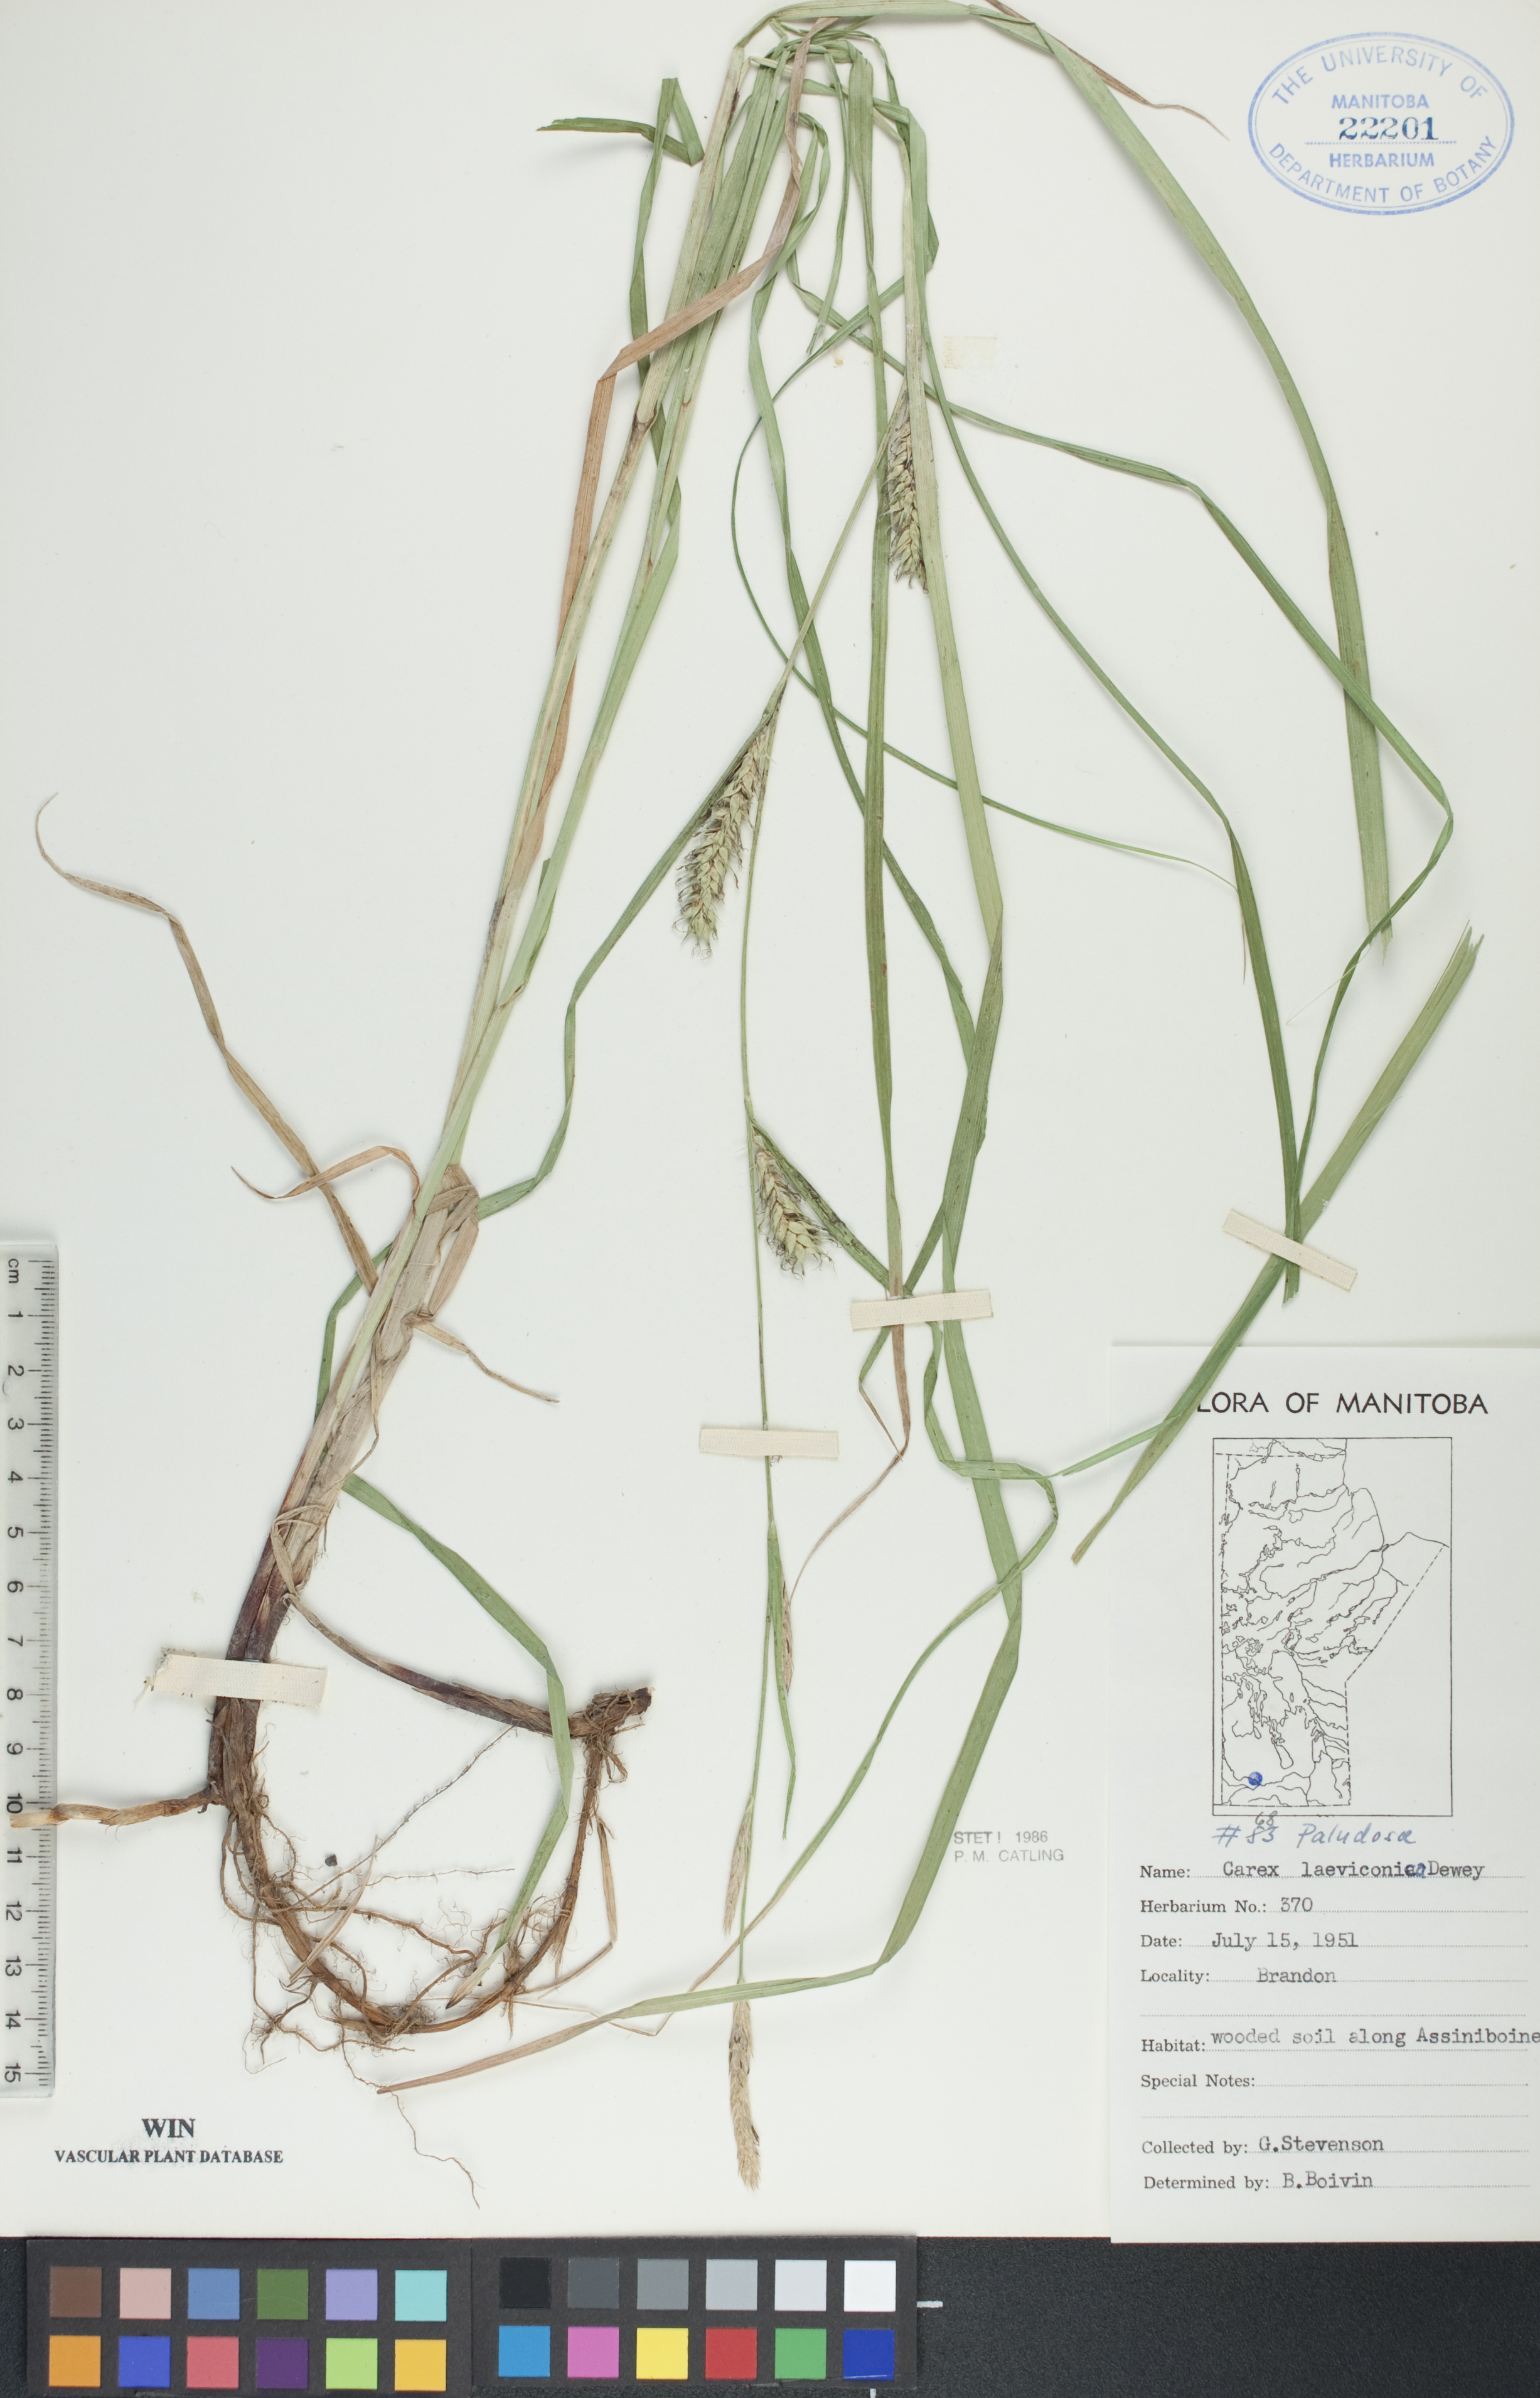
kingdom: Plantae
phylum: Tracheophyta
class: Liliopsida
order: Poales
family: Cyperaceae
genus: Carex
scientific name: Carex laeviconica
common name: Plains slough sedge
